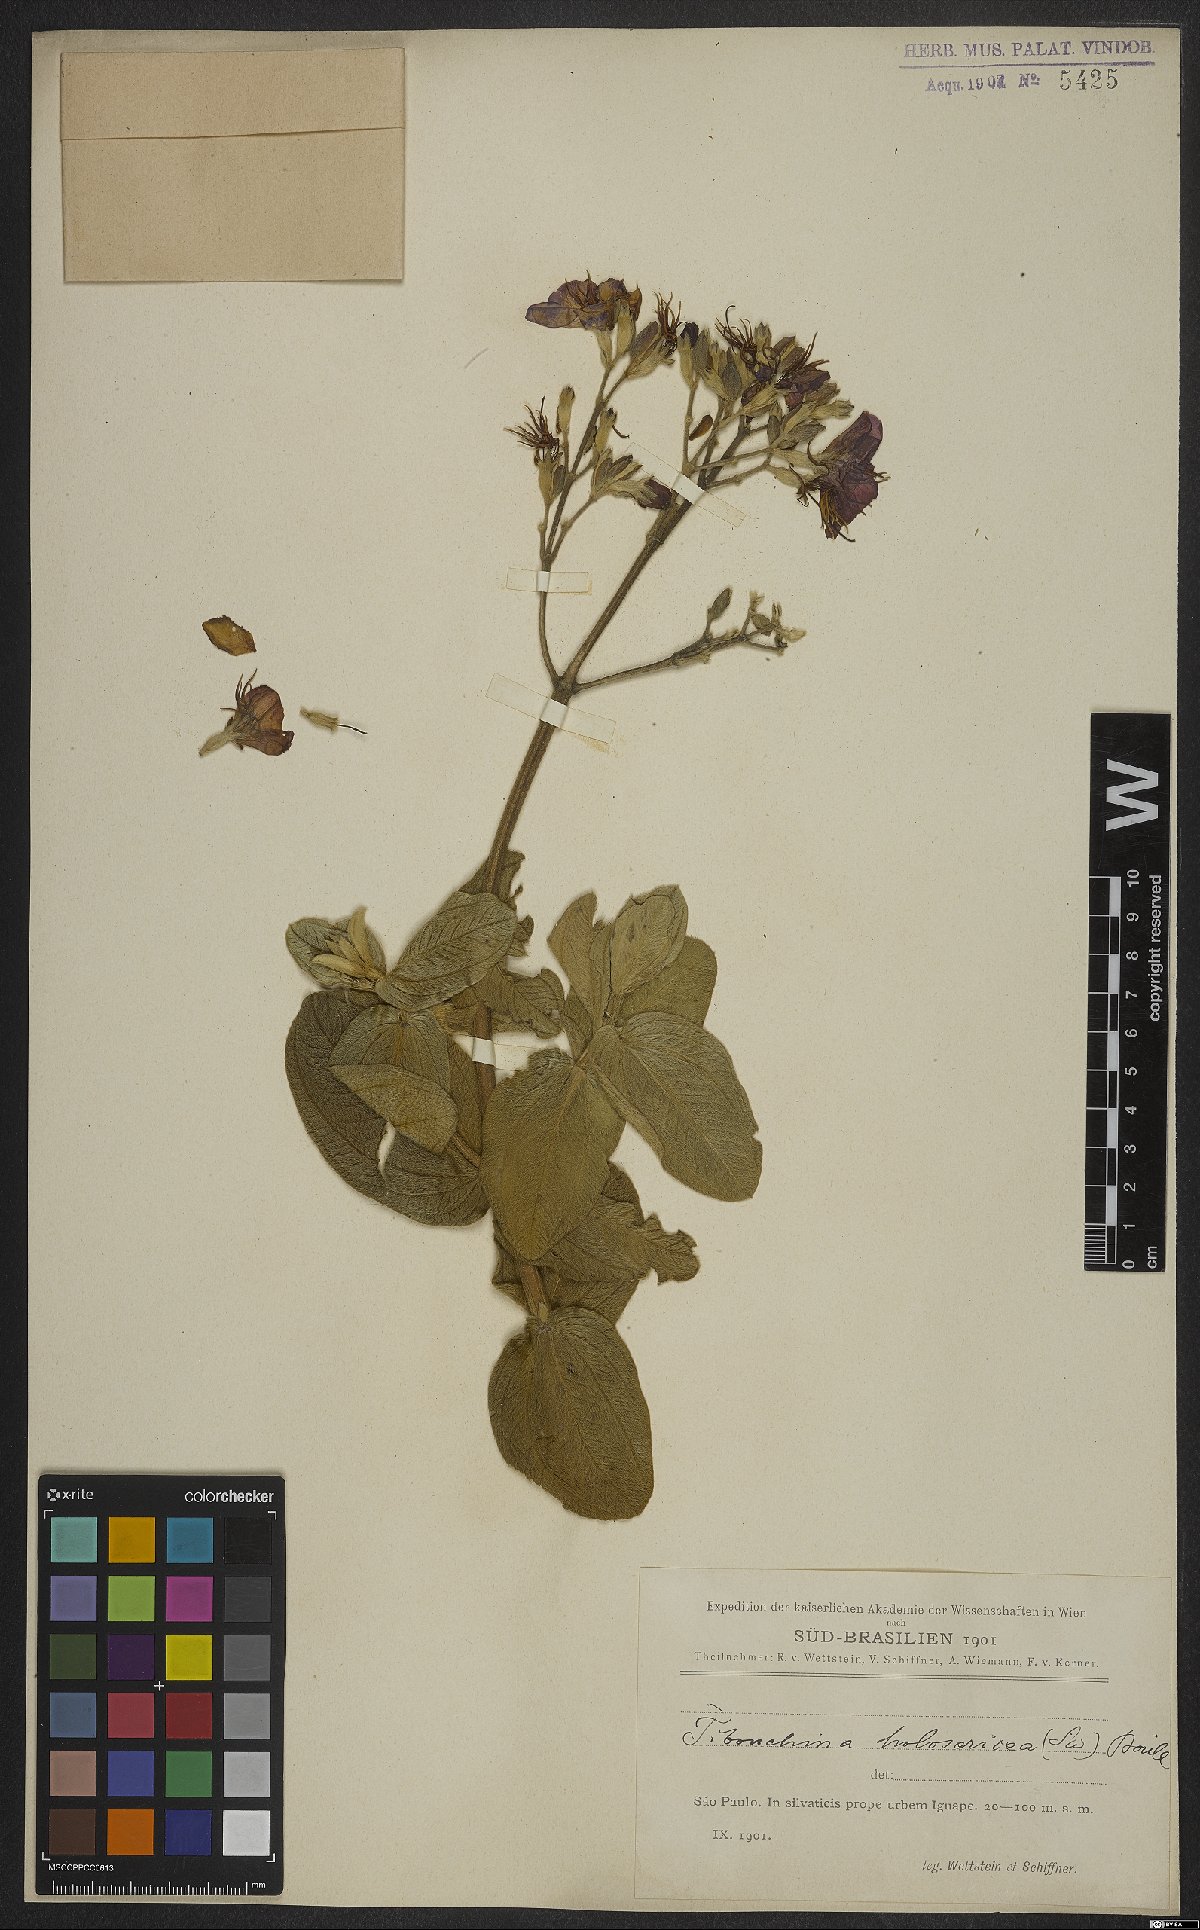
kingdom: Plantae
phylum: Tracheophyta
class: Magnoliopsida
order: Myrtales
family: Melastomataceae
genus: Pleroma
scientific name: Pleroma clavatum
